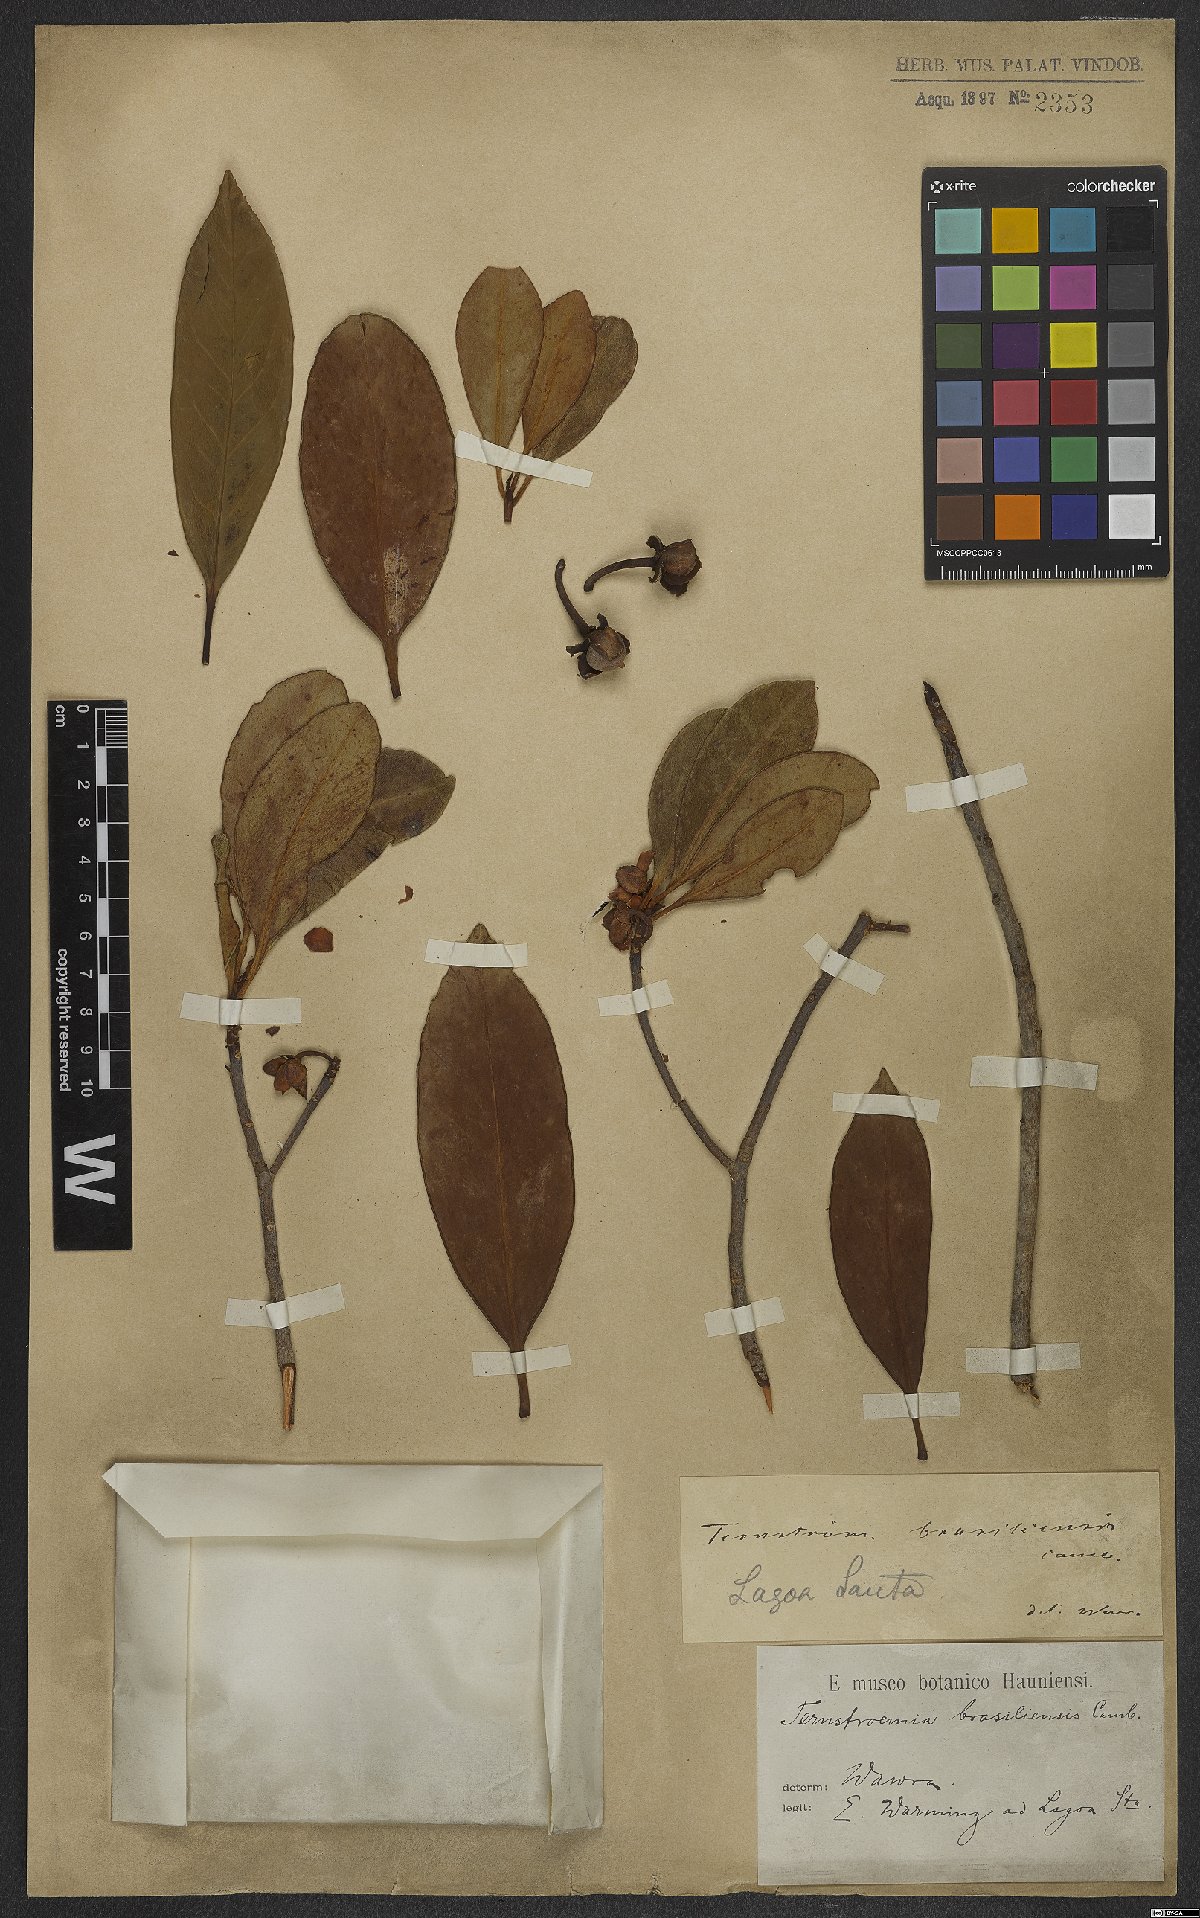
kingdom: Plantae
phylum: Tracheophyta
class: Magnoliopsida
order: Ericales
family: Pentaphylacaceae
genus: Ternstroemia
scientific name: Ternstroemia brasiliensis
